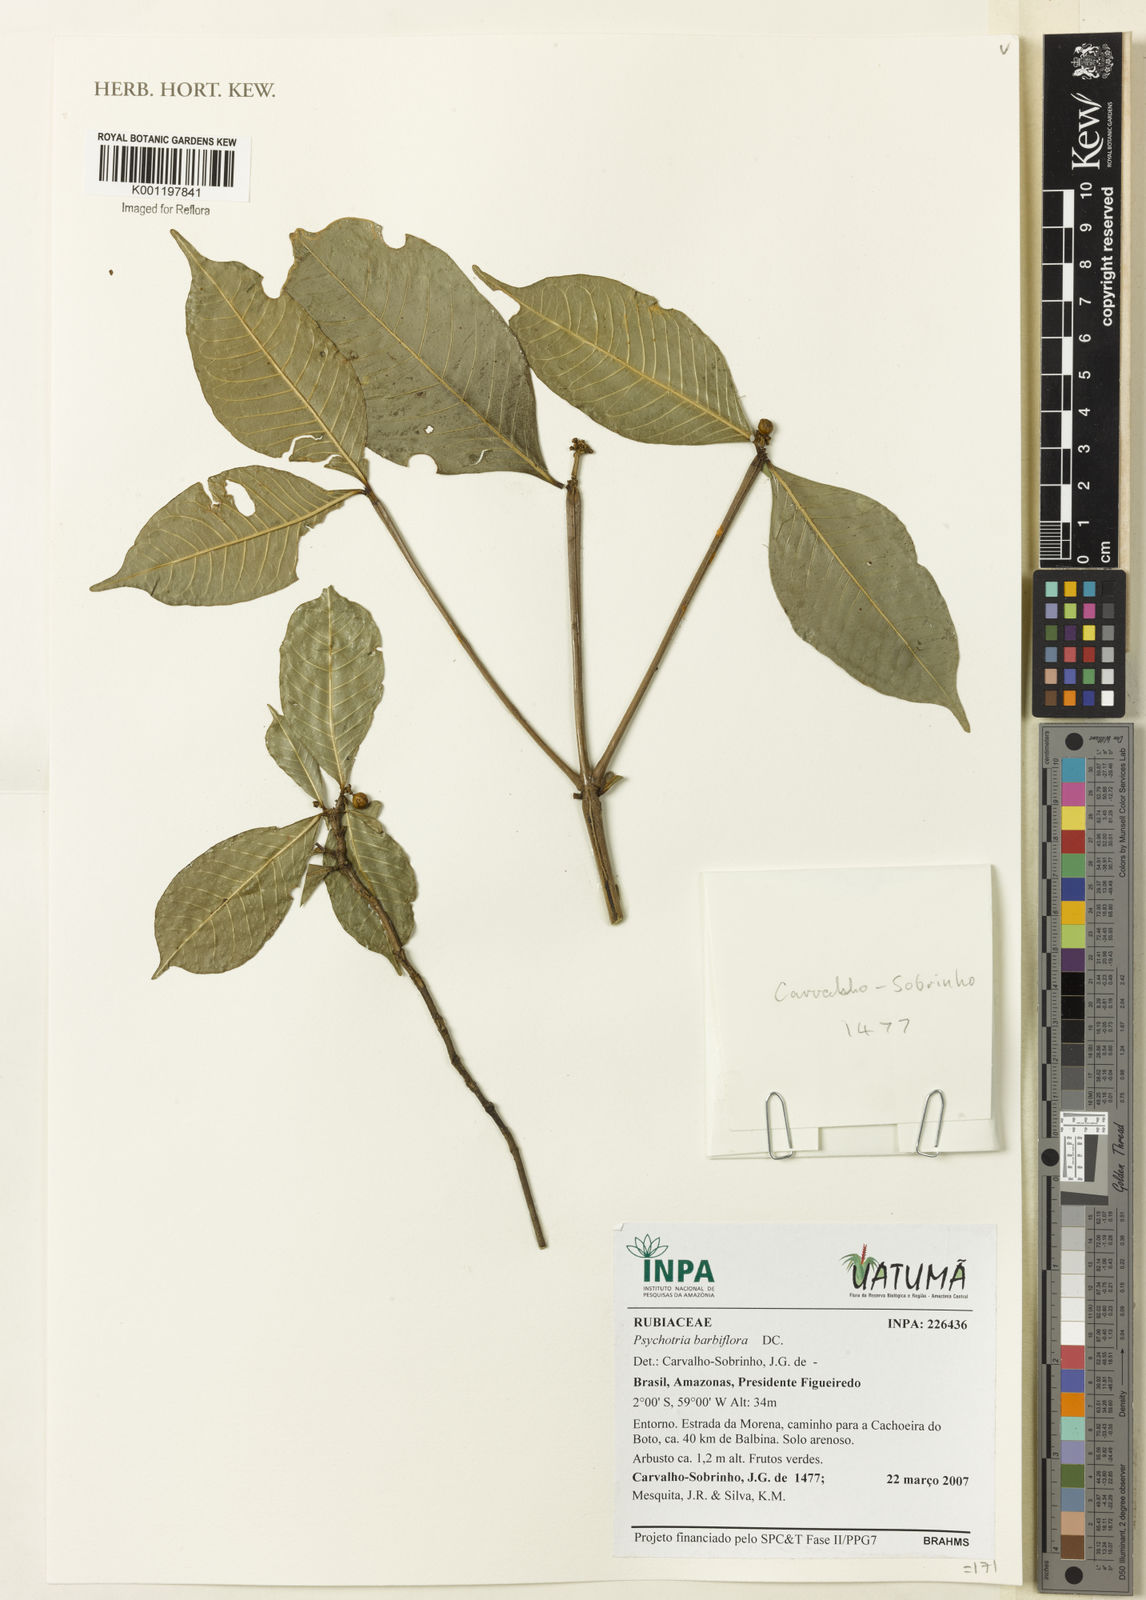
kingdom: Plantae
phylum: Tracheophyta
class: Magnoliopsida
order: Gentianales
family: Rubiaceae
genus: Psychotria
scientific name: Psychotria
